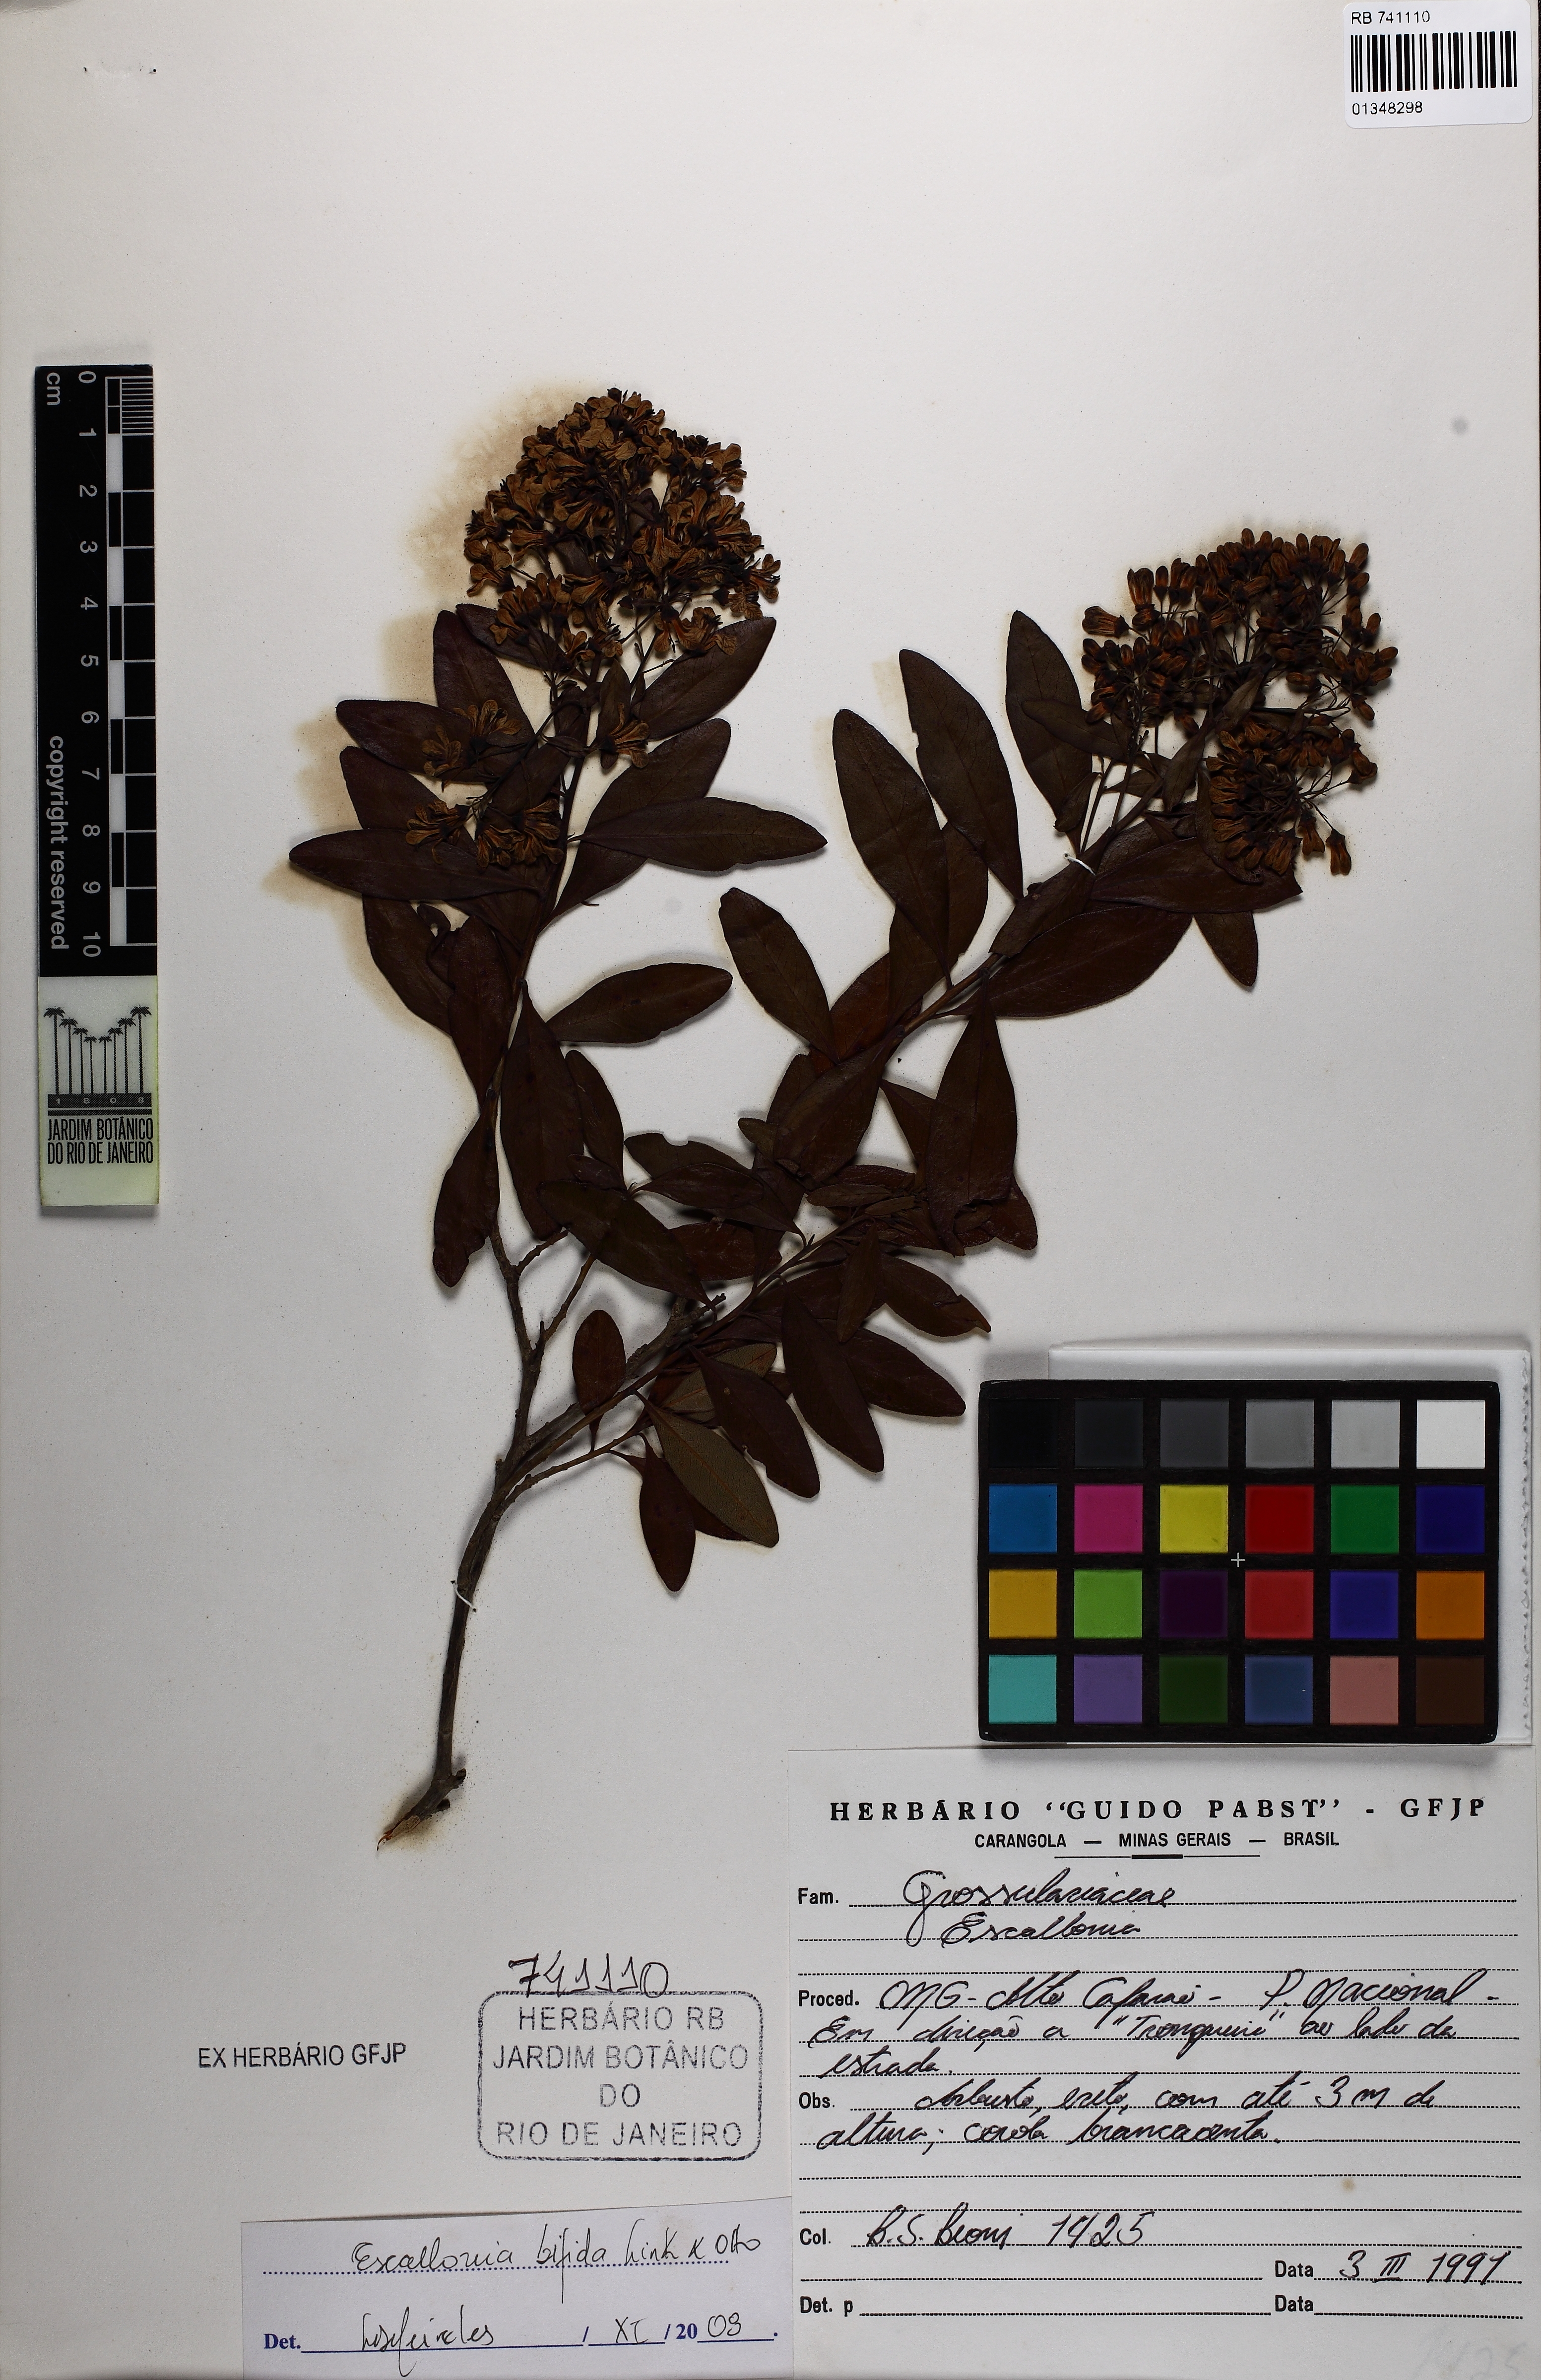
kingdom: Plantae
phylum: Tracheophyta
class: Magnoliopsida
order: Escalloniales
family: Escalloniaceae
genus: Escallonia
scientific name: Escallonia bifida
